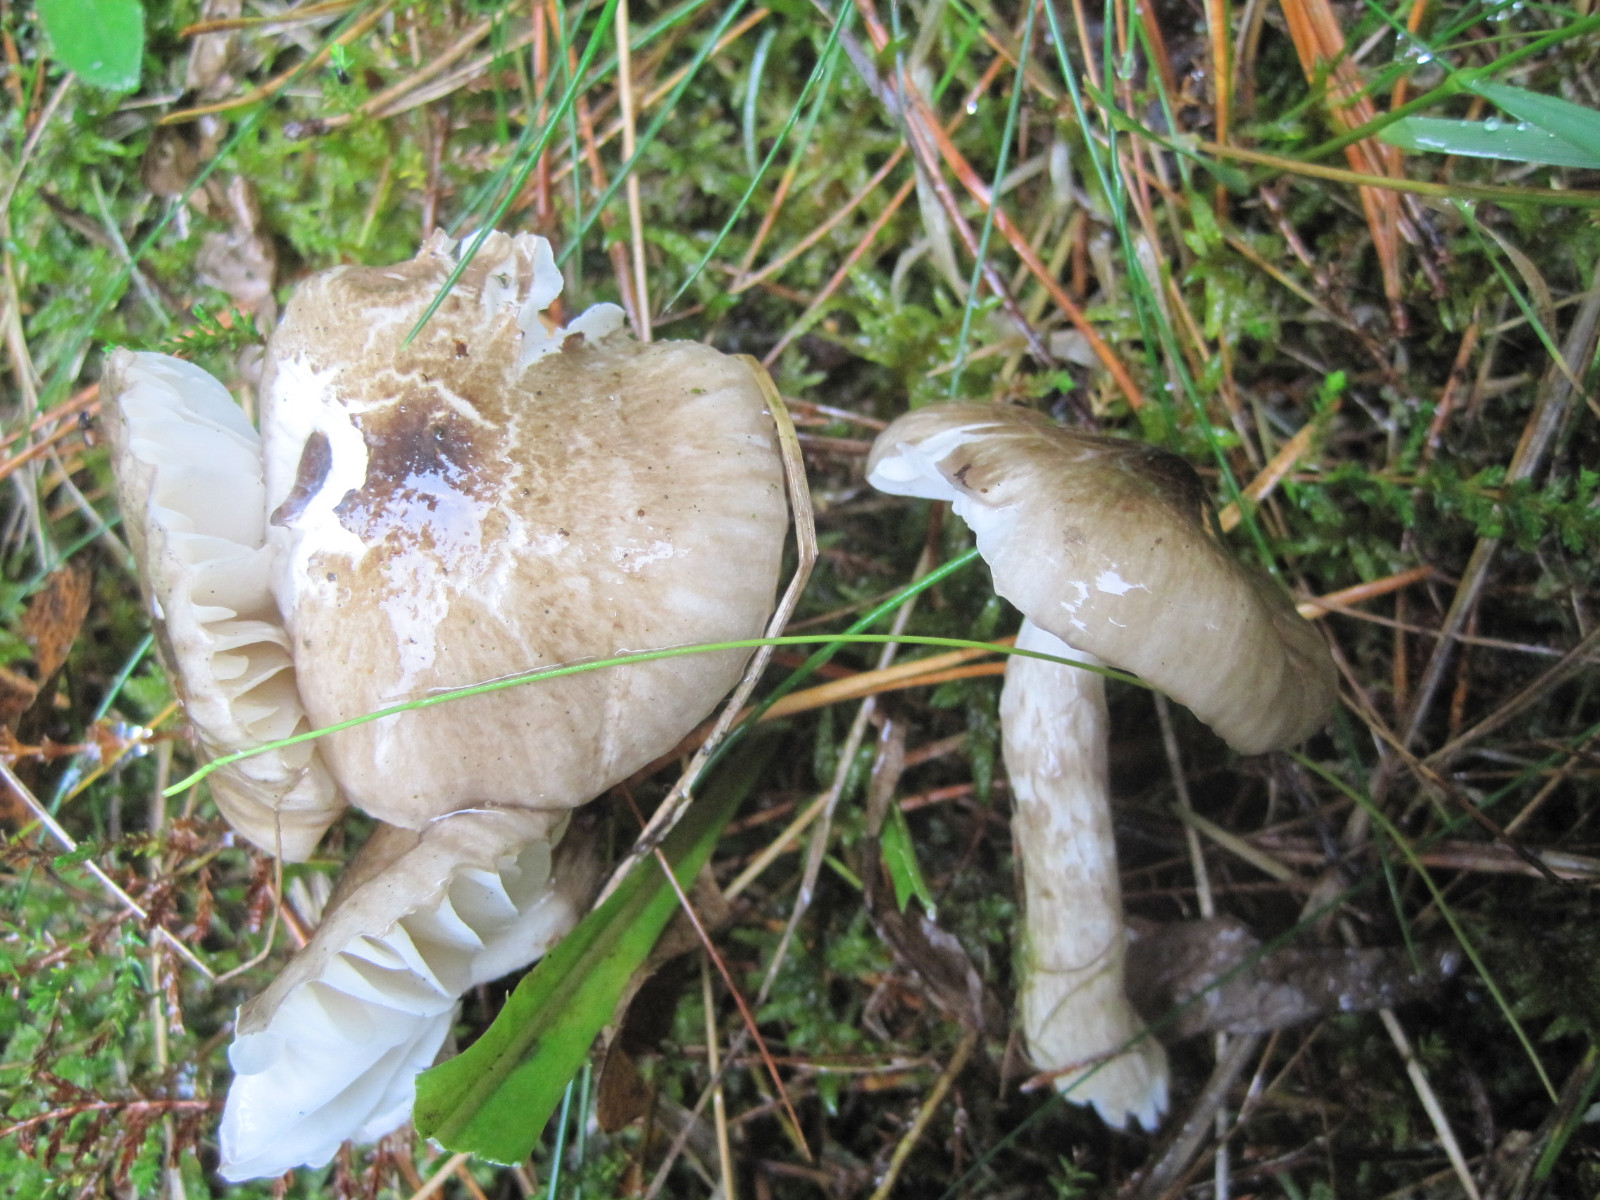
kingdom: Fungi
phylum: Basidiomycota
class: Agaricomycetes
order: Agaricales
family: Hygrophoraceae
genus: Hygrophorus
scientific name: Hygrophorus olivaceoalbus
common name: hvidbrun sneglehat
